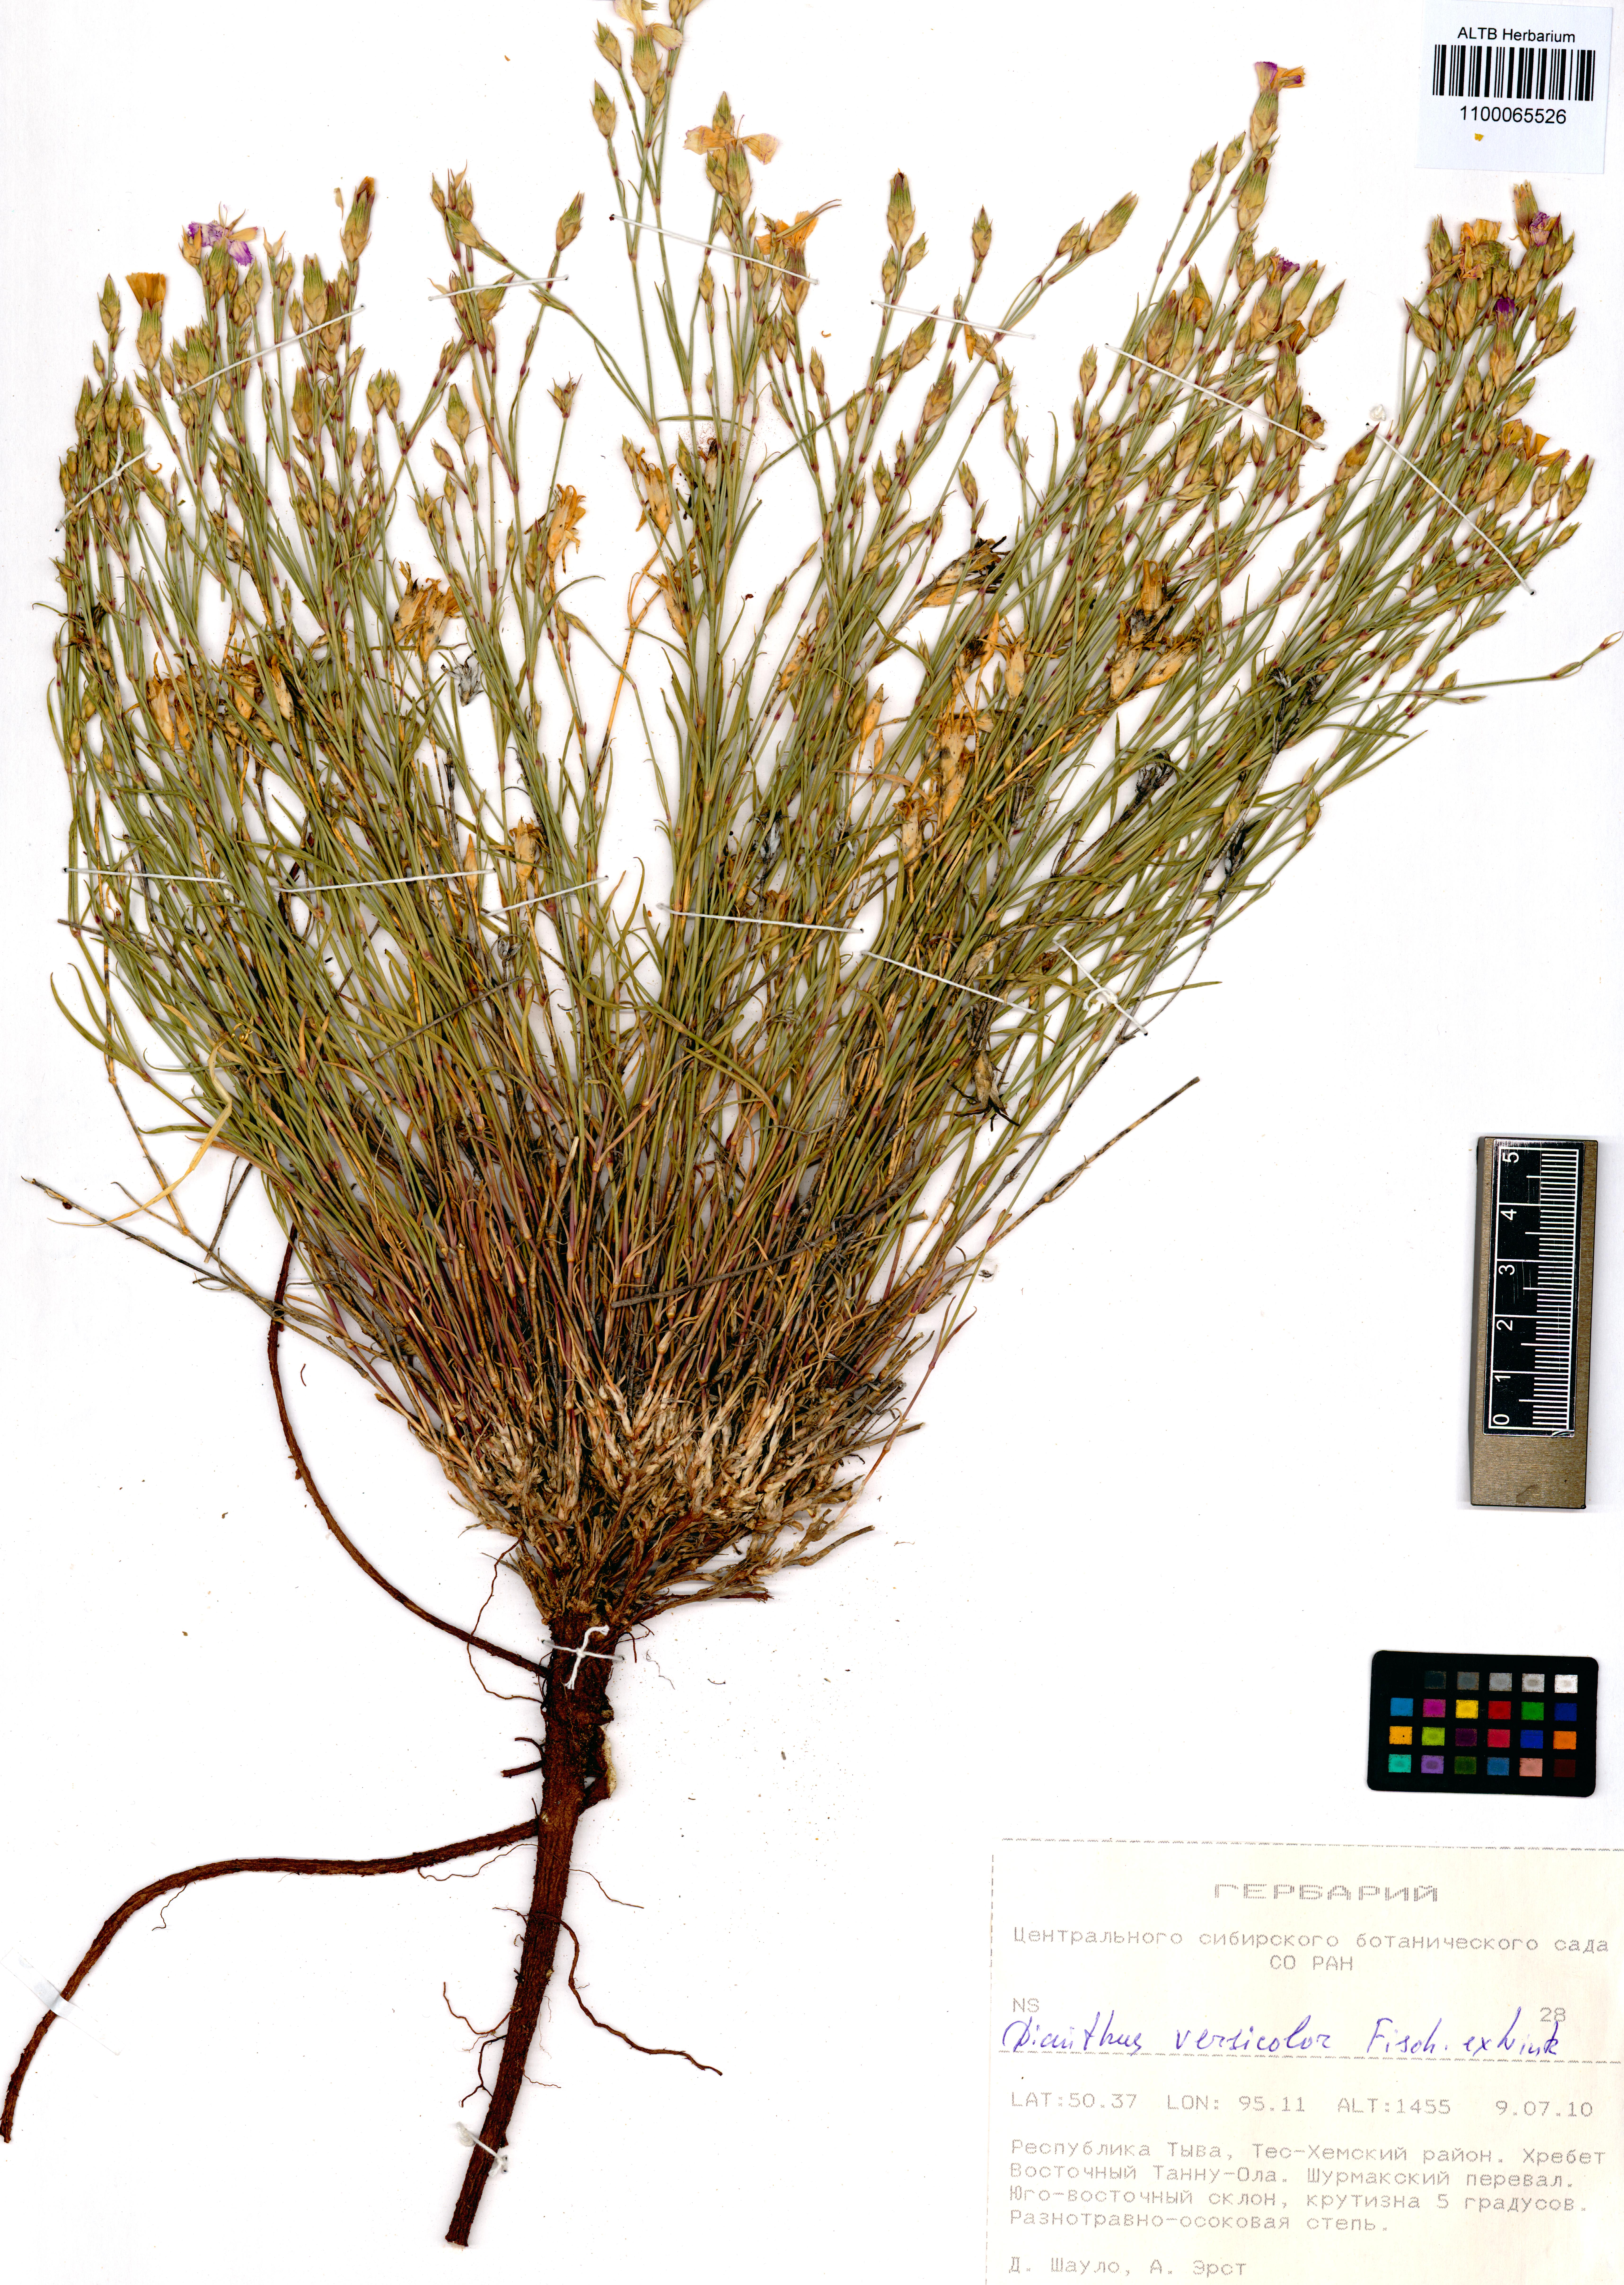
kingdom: Plantae
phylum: Tracheophyta
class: Magnoliopsida
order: Caryophyllales
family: Caryophyllaceae
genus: Dianthus
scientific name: Dianthus chinensis
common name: Rainbow pink
